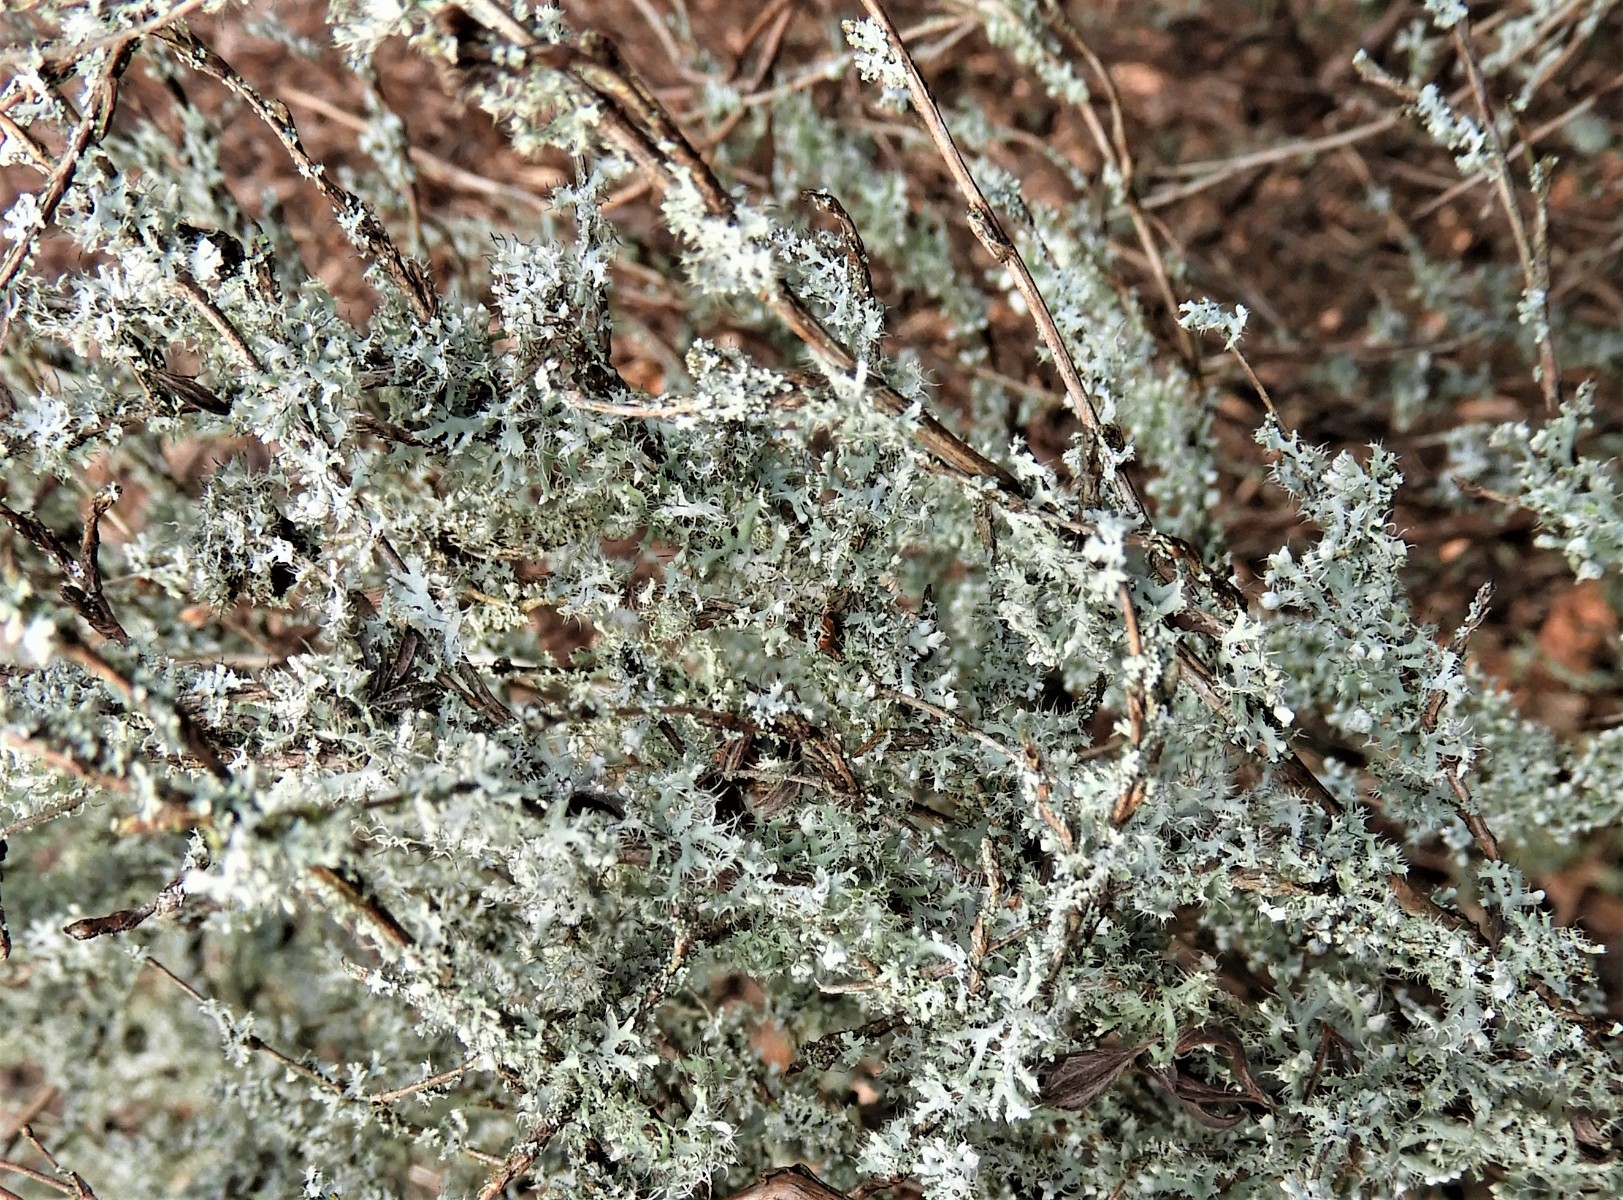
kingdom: Fungi
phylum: Ascomycota
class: Lecanoromycetes
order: Caliciales
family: Physciaceae
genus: Physcia
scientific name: Physcia adscendens
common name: hætte-rosetlav
